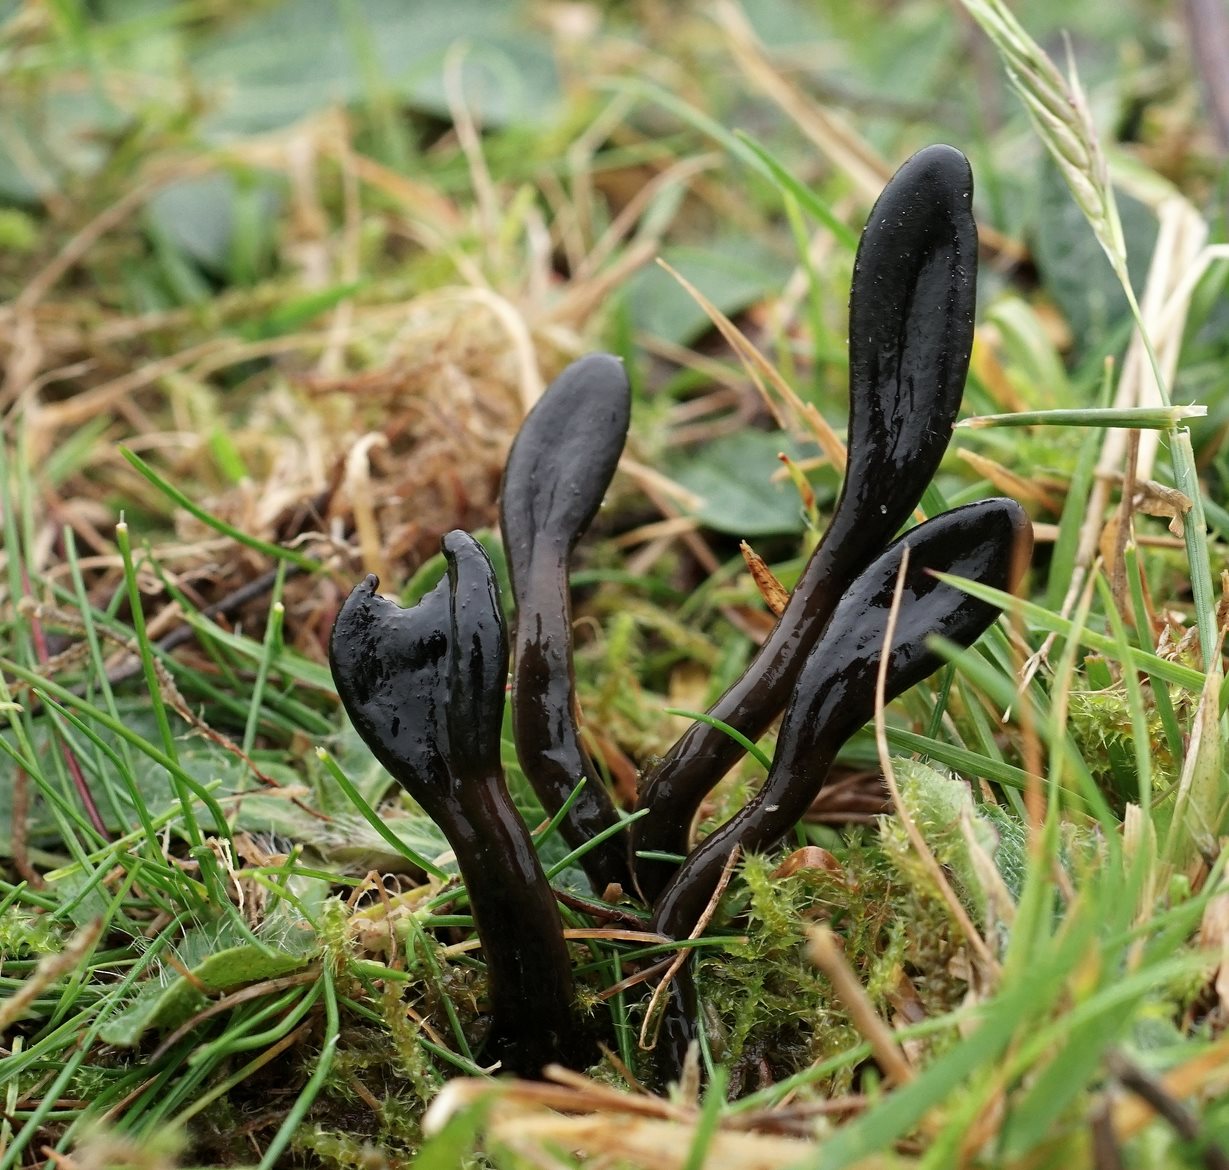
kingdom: Fungi
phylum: Ascomycota
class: Geoglossomycetes
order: Geoglossales
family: Geoglossaceae
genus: Glutinoglossum
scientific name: Glutinoglossum glutinosum
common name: slimet jordtunge
